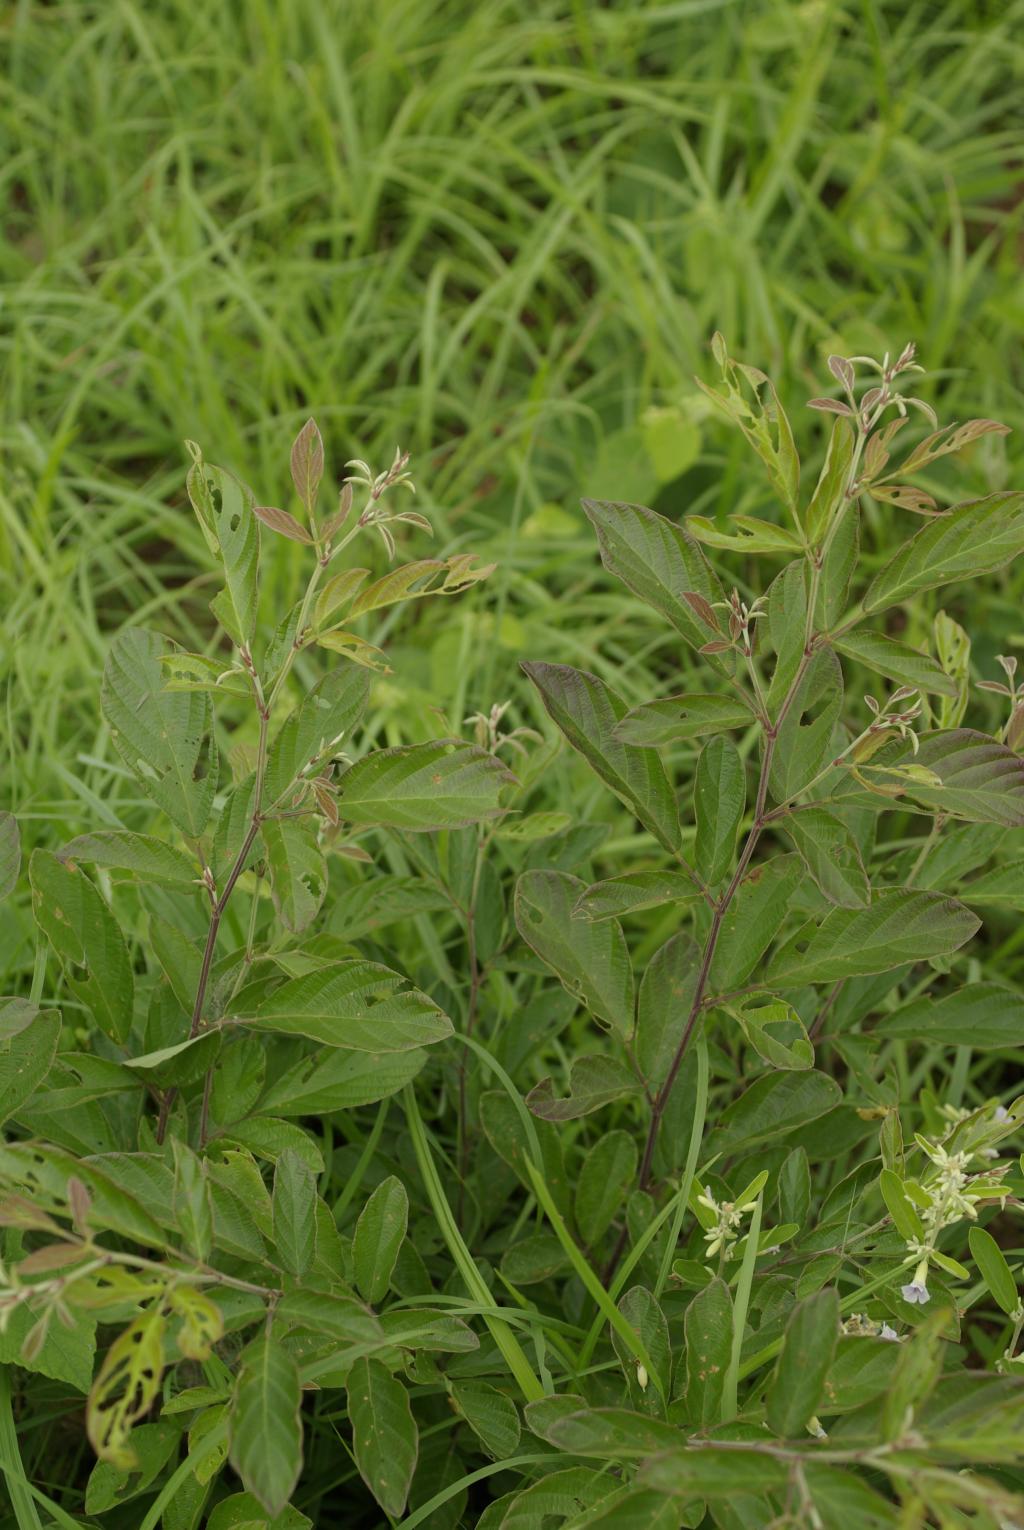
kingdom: Plantae
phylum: Tracheophyta
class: Magnoliopsida
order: Fabales
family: Fabaceae
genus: Phyllodium
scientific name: Phyllodium pulchellum
